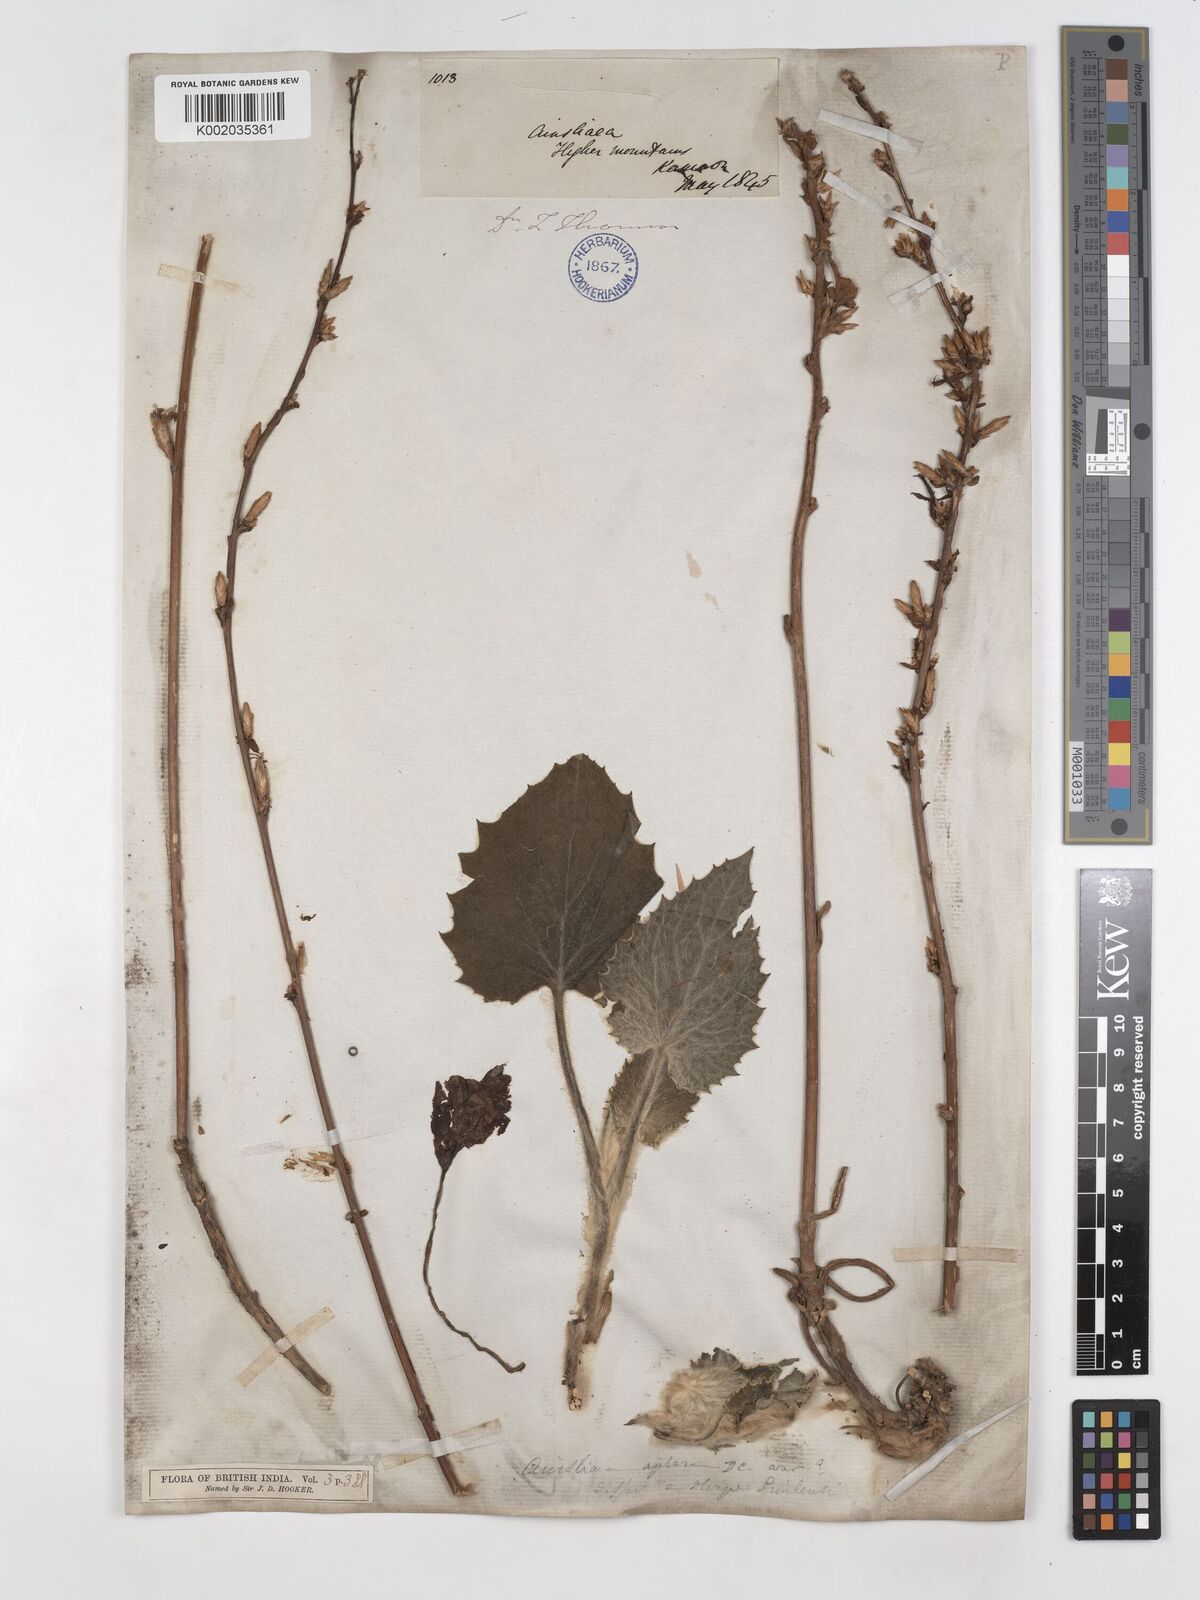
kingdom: Plantae
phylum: Tracheophyta
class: Magnoliopsida
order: Asterales
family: Asteraceae
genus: Ainsliaea
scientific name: Ainsliaea aptera
